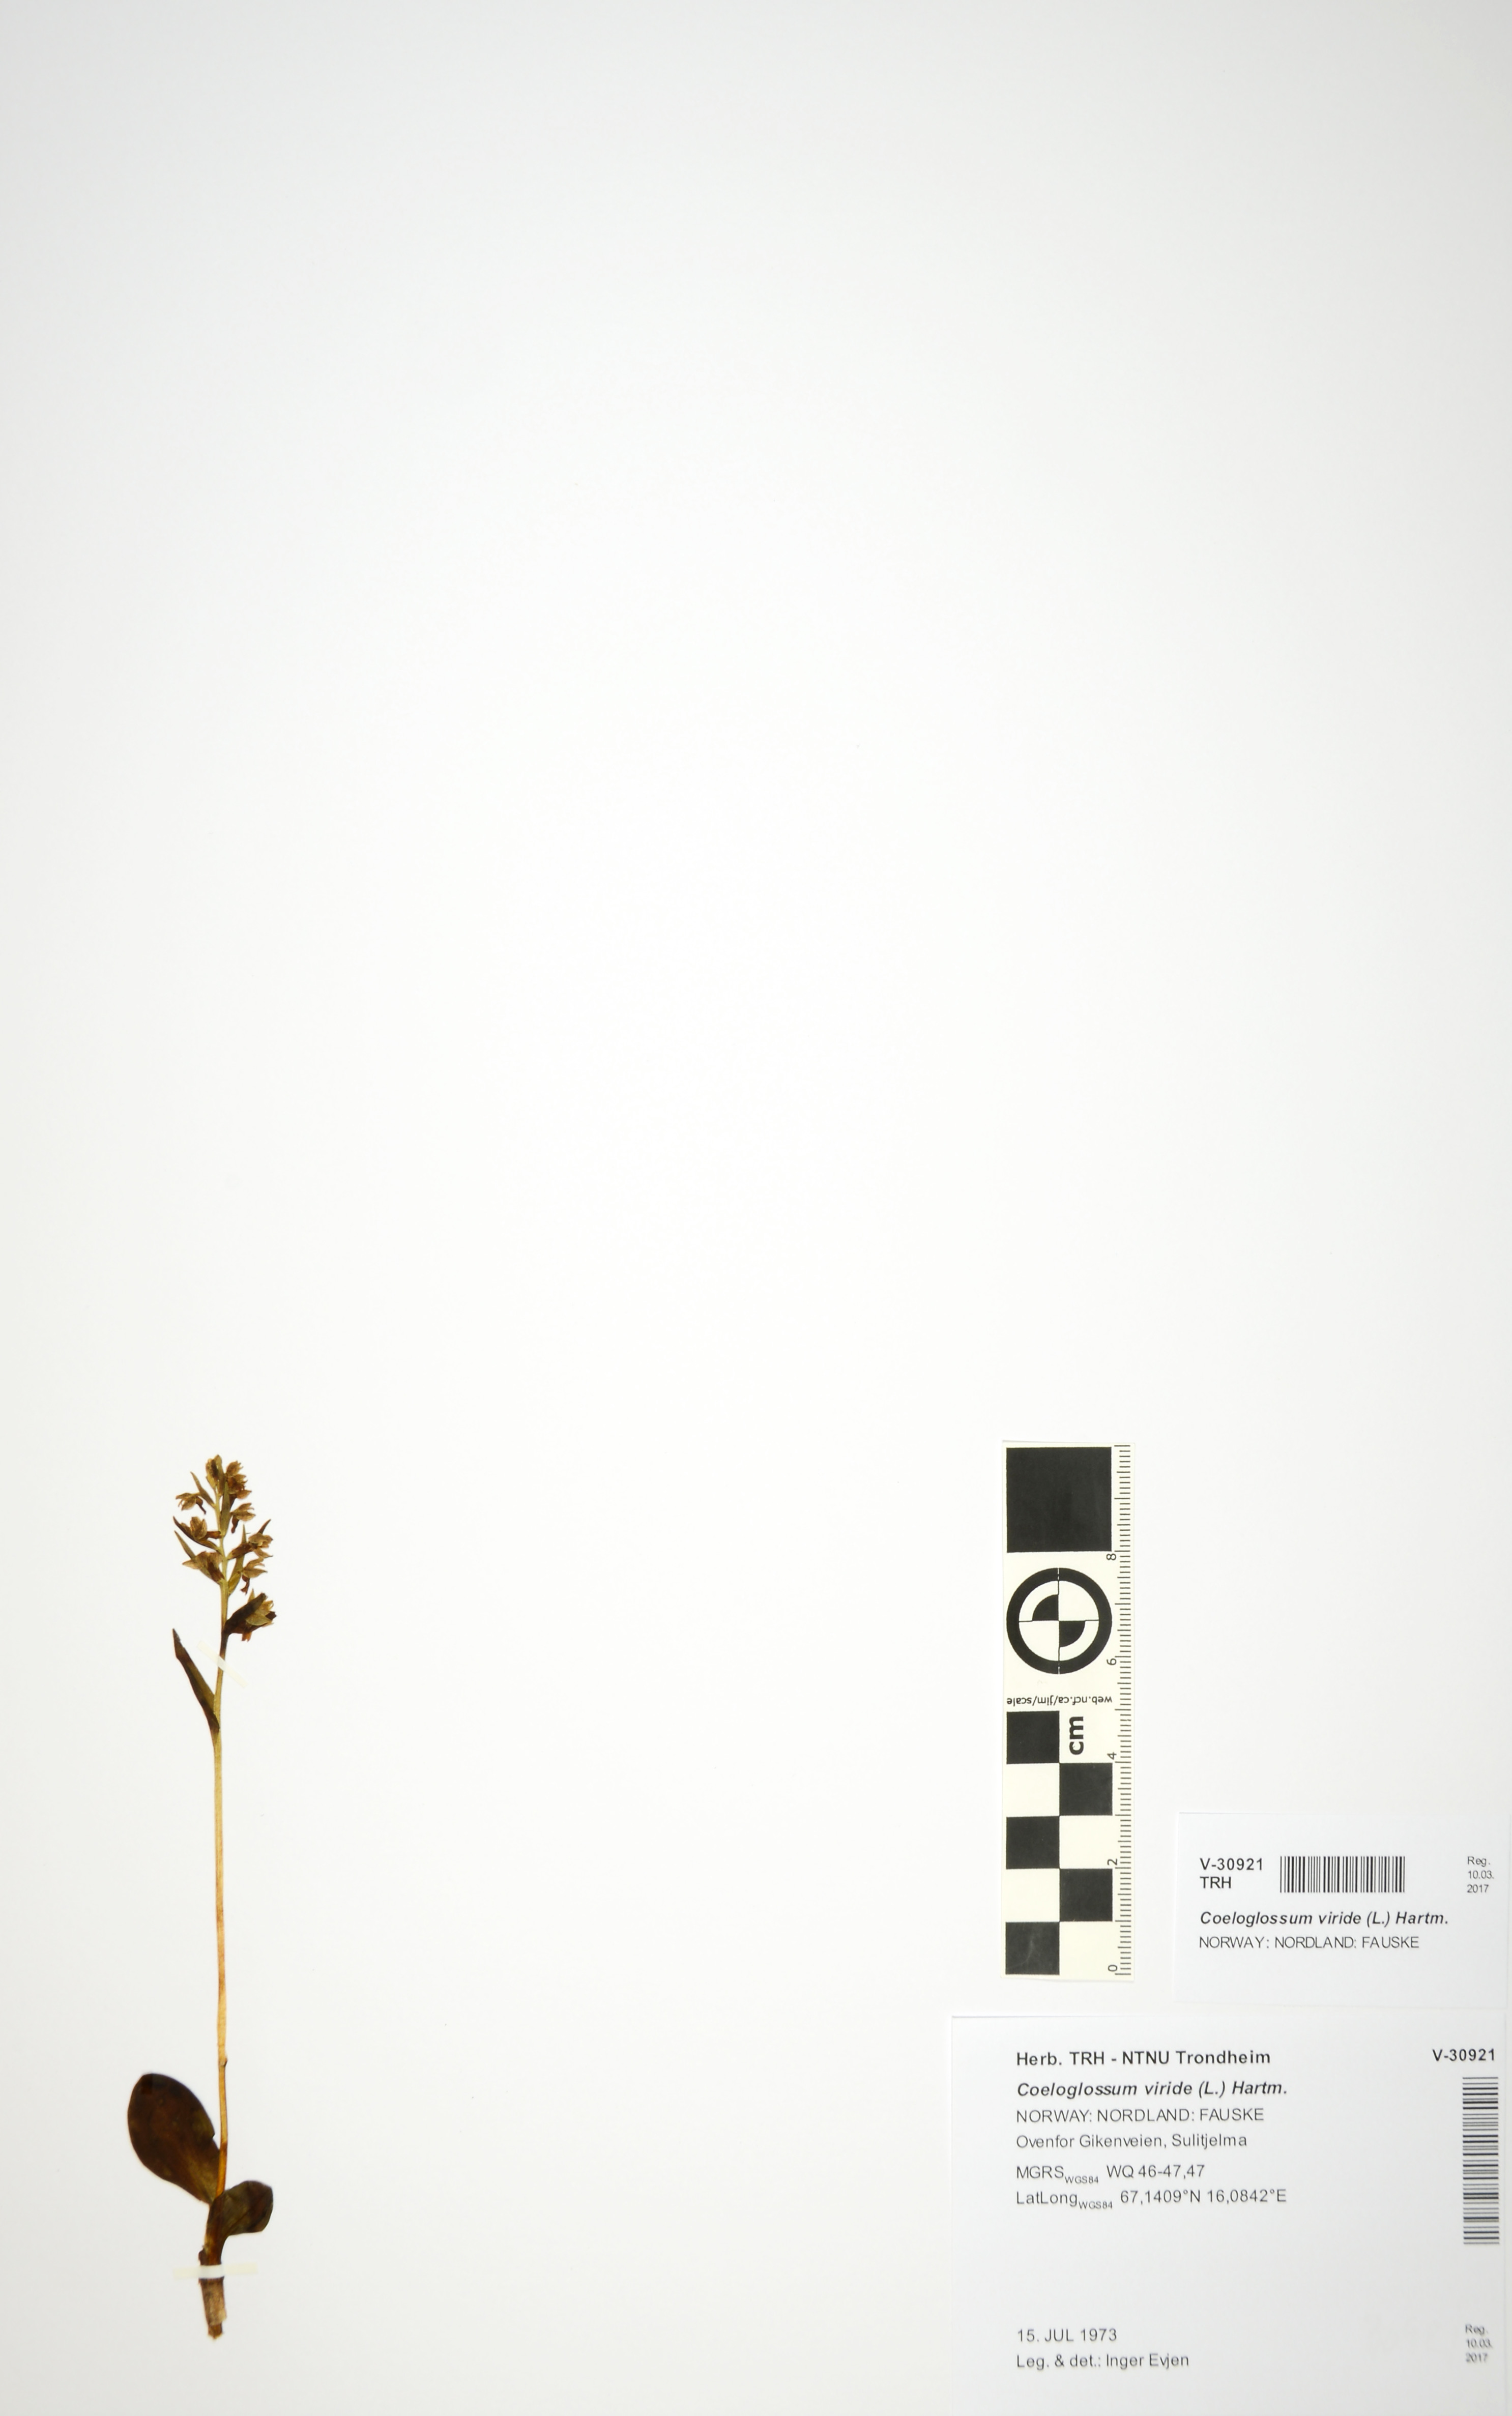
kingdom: Plantae
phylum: Tracheophyta
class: Liliopsida
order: Asparagales
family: Orchidaceae
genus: Dactylorhiza
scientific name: Dactylorhiza viridis
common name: Longbract frog orchid
